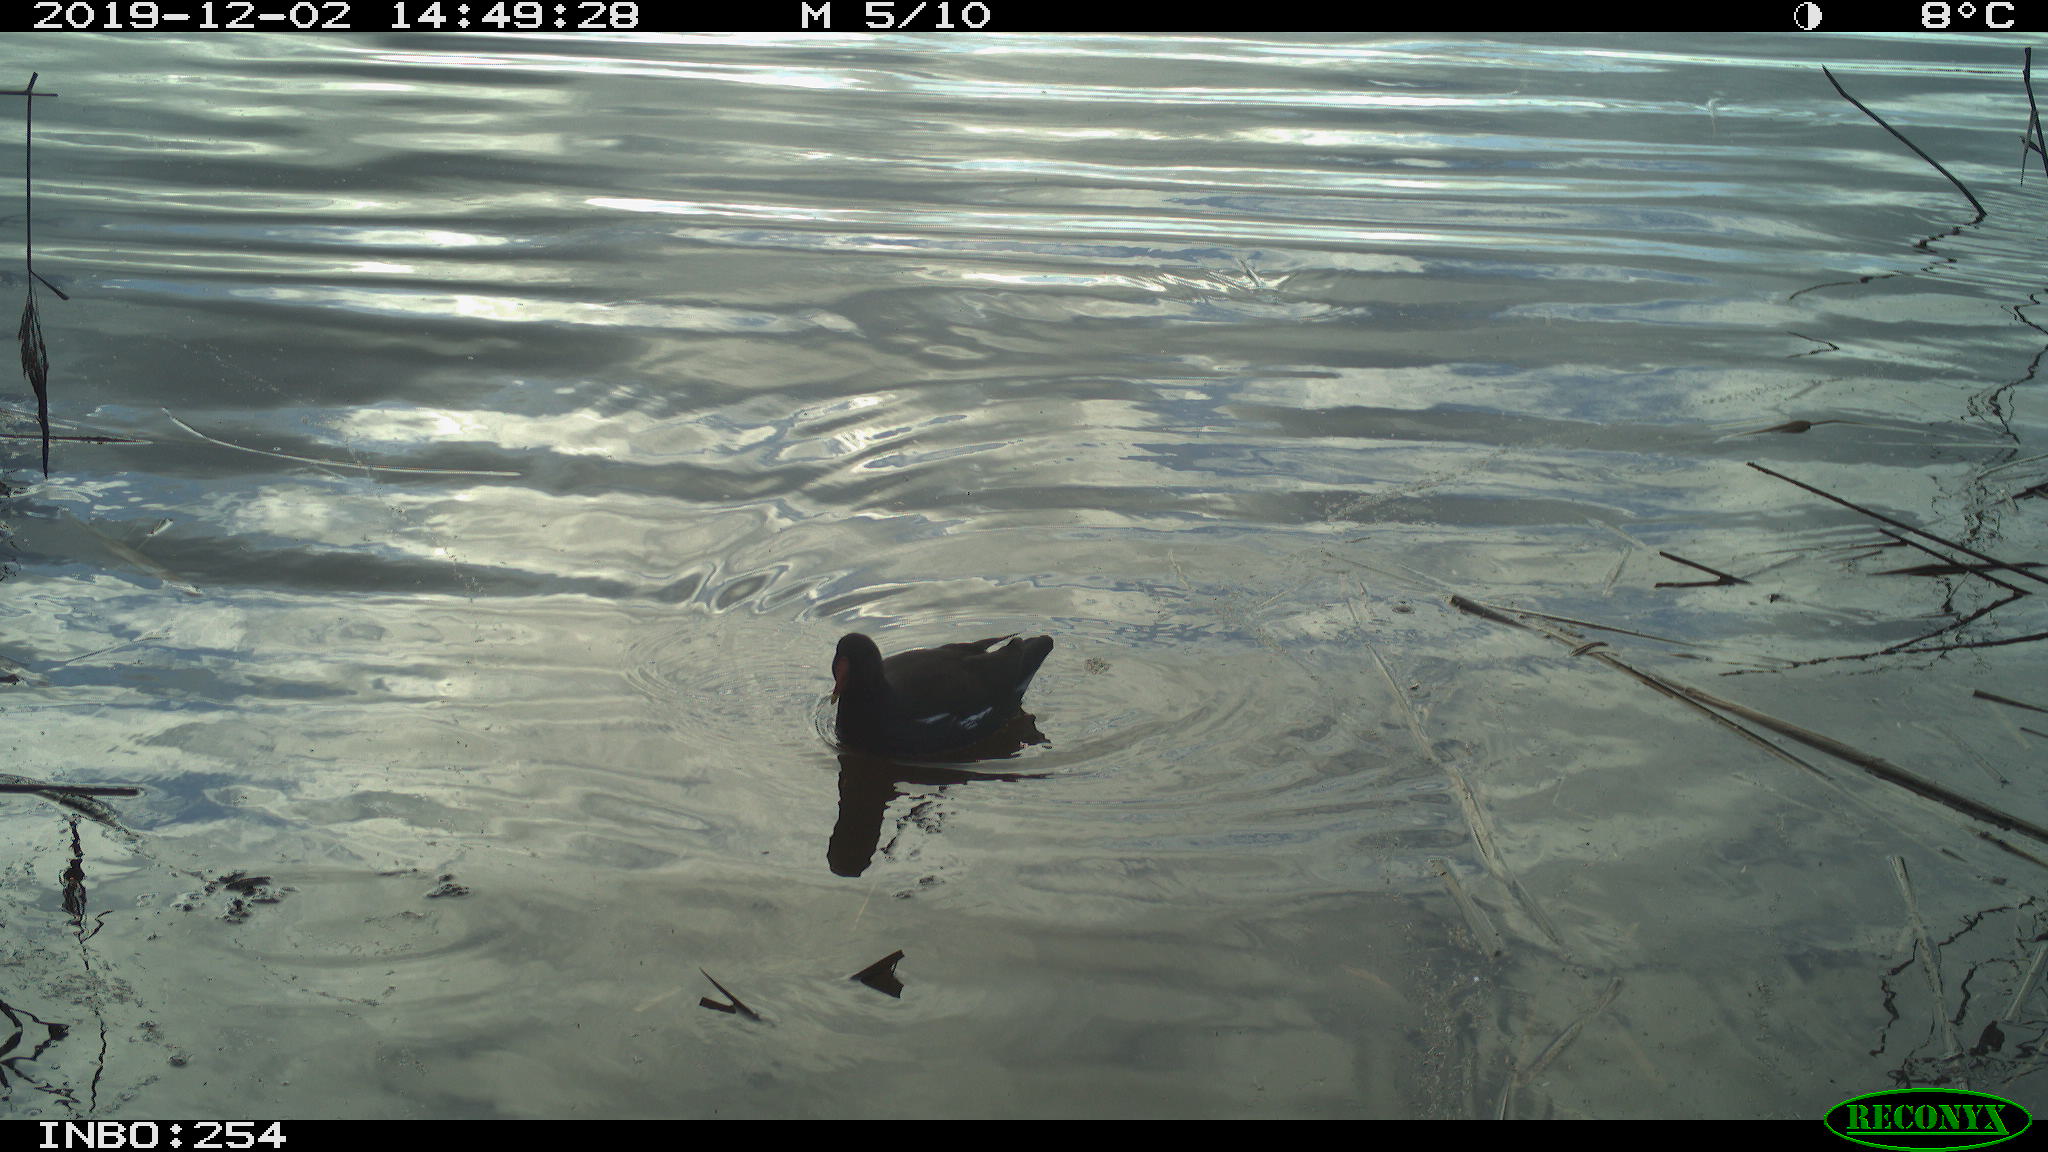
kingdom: Animalia
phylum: Chordata
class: Aves
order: Gruiformes
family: Rallidae
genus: Gallinula
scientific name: Gallinula chloropus
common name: Common moorhen
